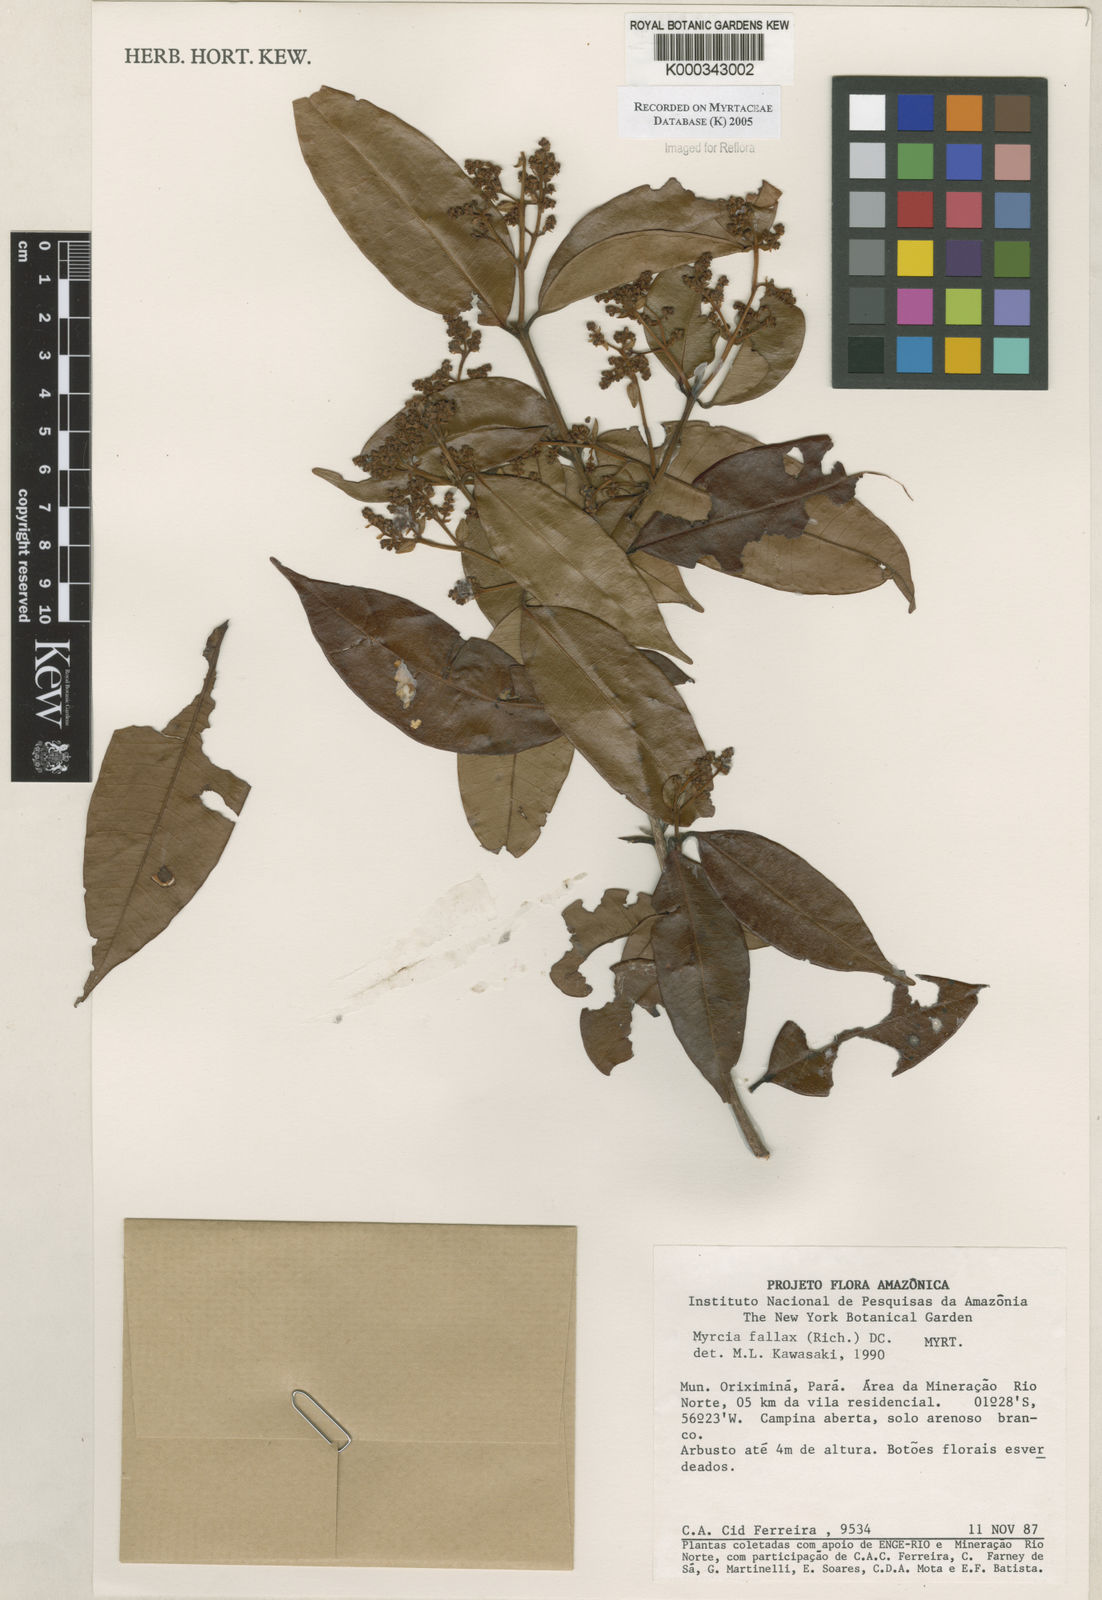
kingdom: Plantae
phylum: Tracheophyta
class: Magnoliopsida
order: Myrtales
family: Myrtaceae
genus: Myrcia
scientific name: Myrcia splendens
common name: Surinam cherry
